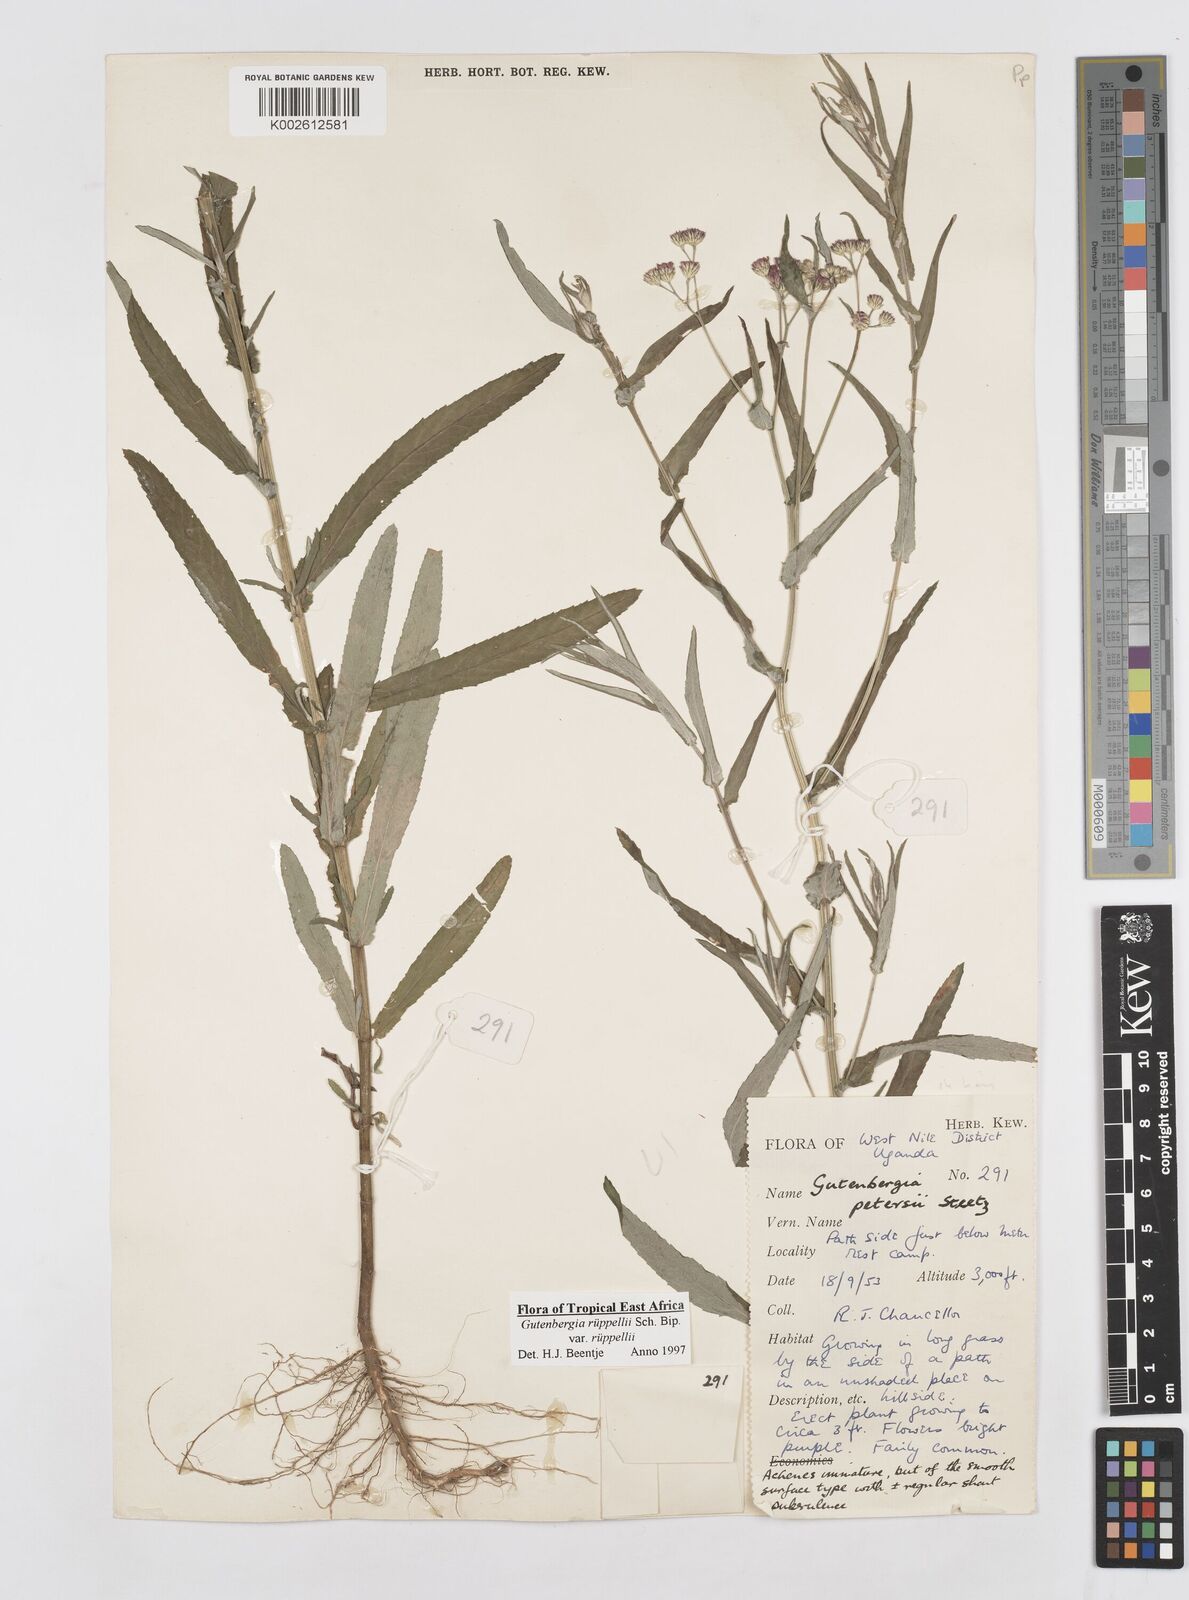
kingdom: Plantae
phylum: Tracheophyta
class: Magnoliopsida
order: Asterales
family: Asteraceae
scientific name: Asteraceae
